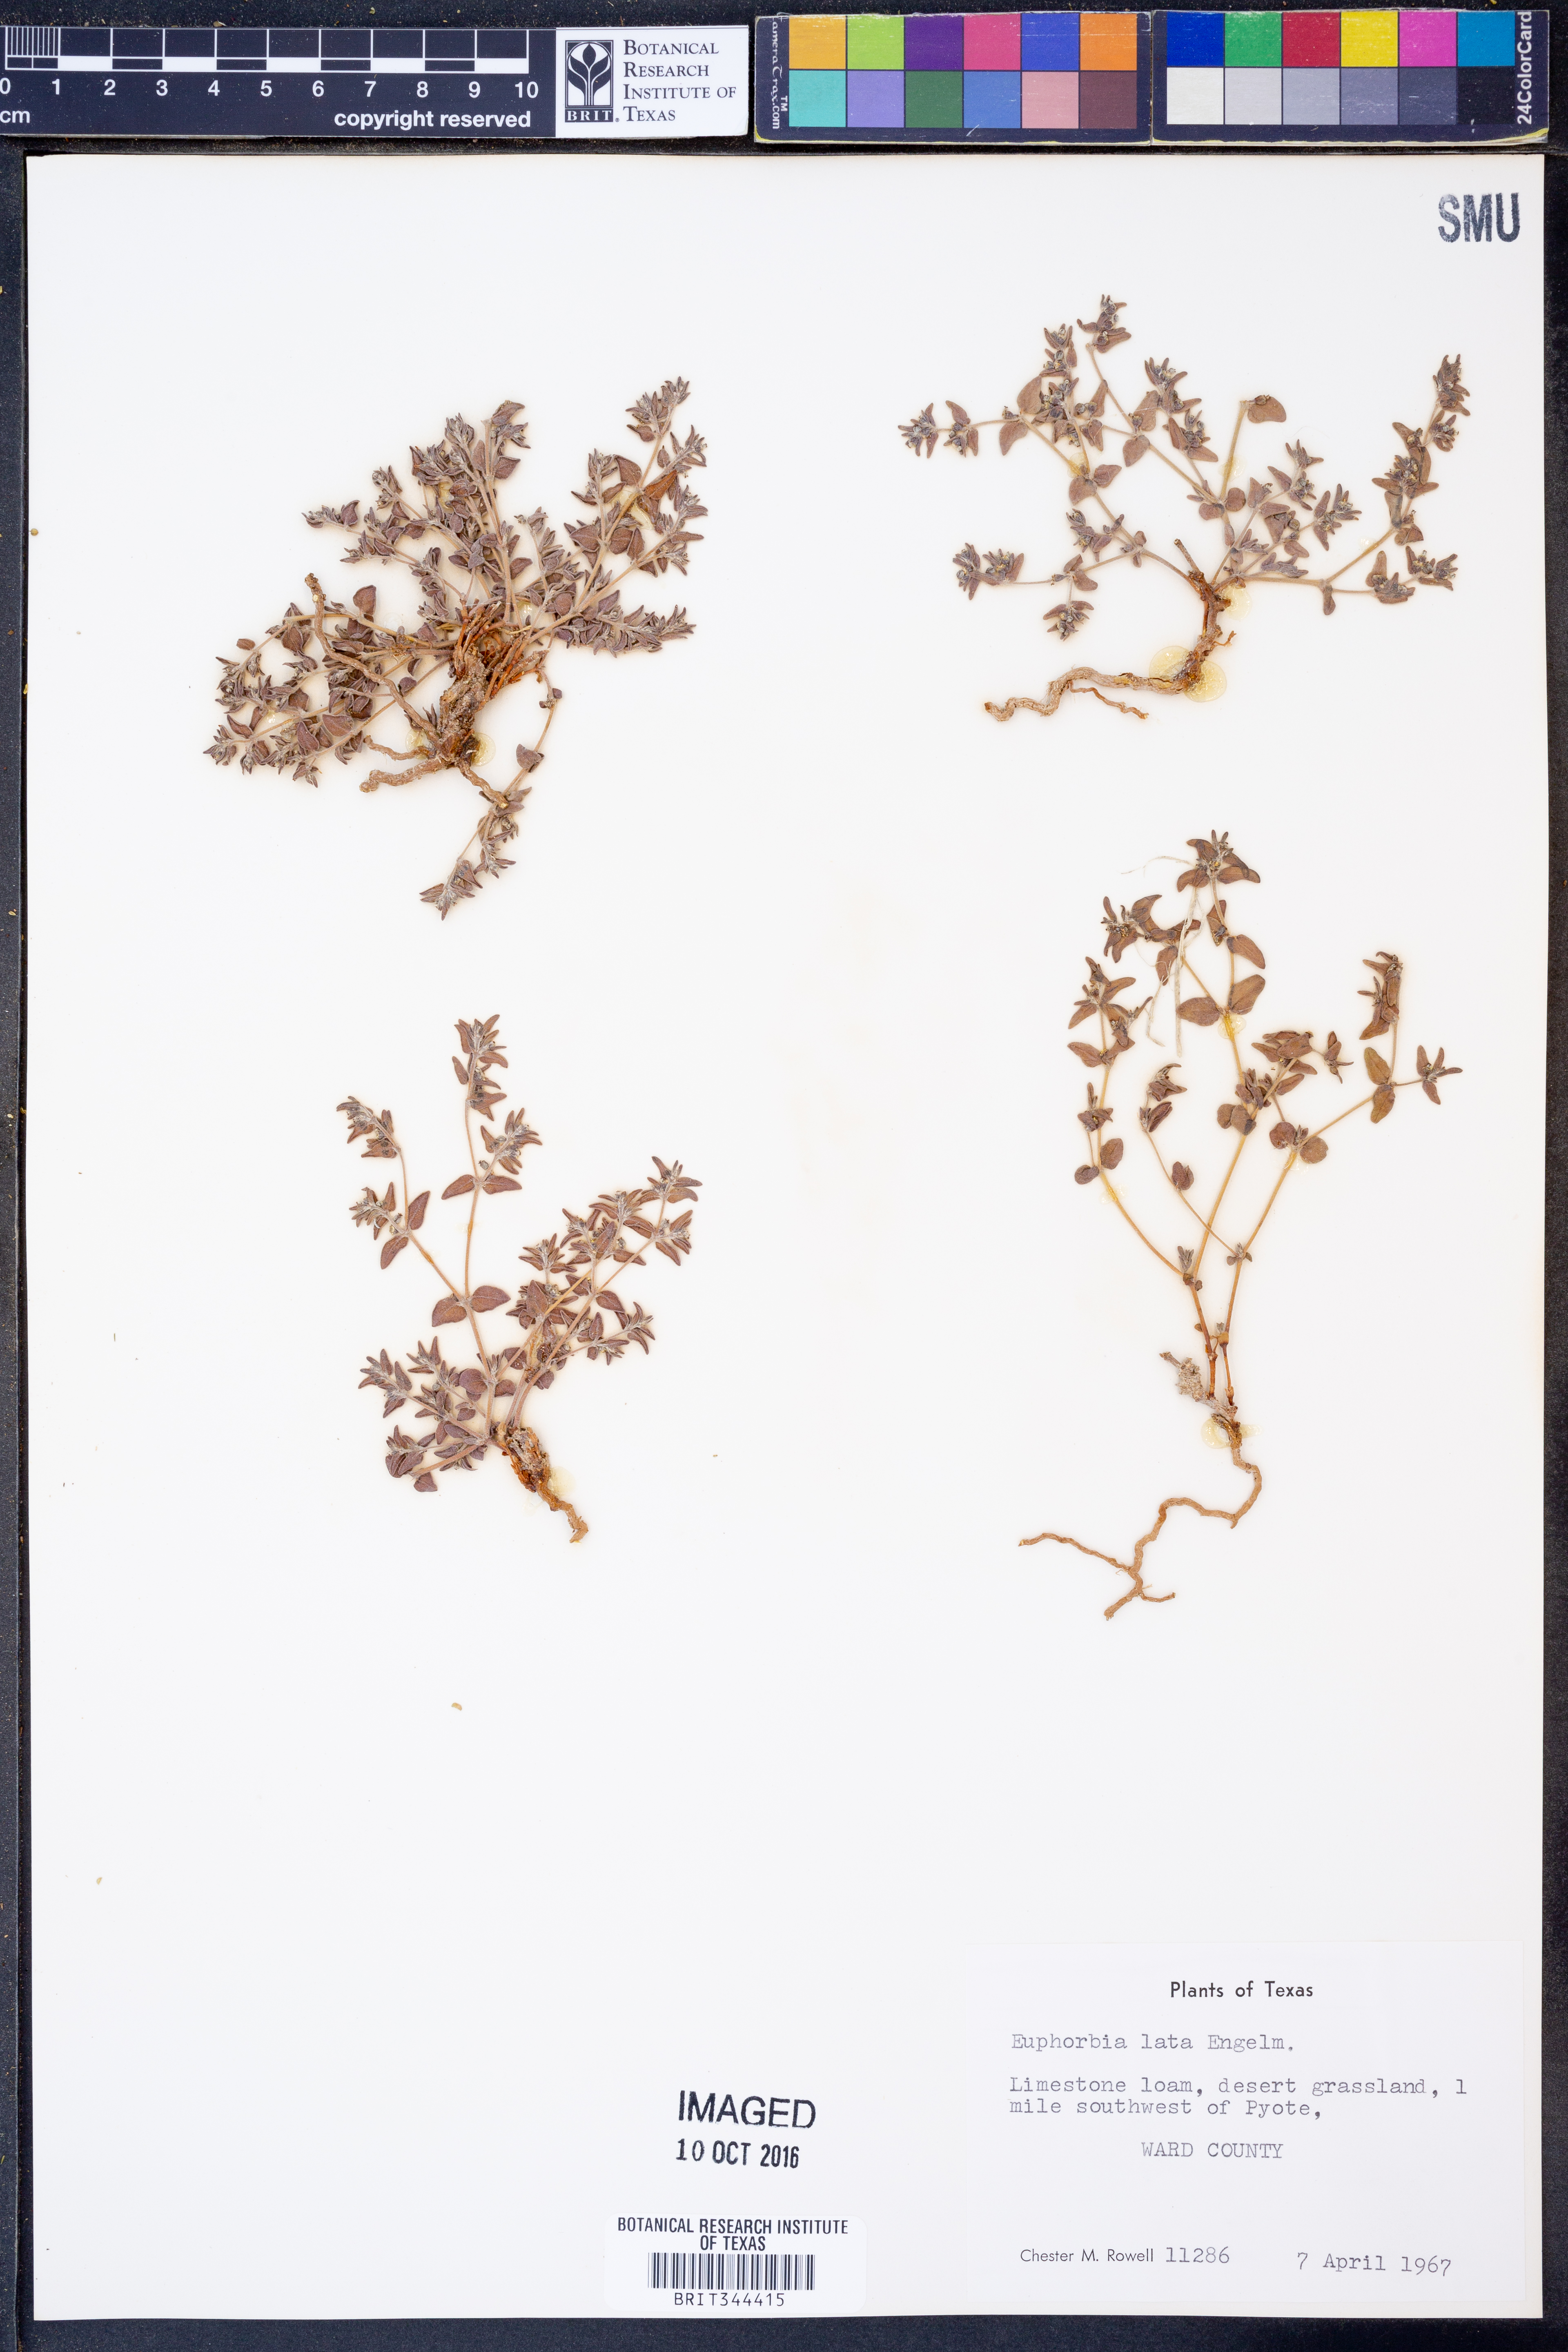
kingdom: Plantae
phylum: Tracheophyta
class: Magnoliopsida
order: Malpighiales
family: Euphorbiaceae
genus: Euphorbia
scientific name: Euphorbia lata
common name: Hoary euphorbia
